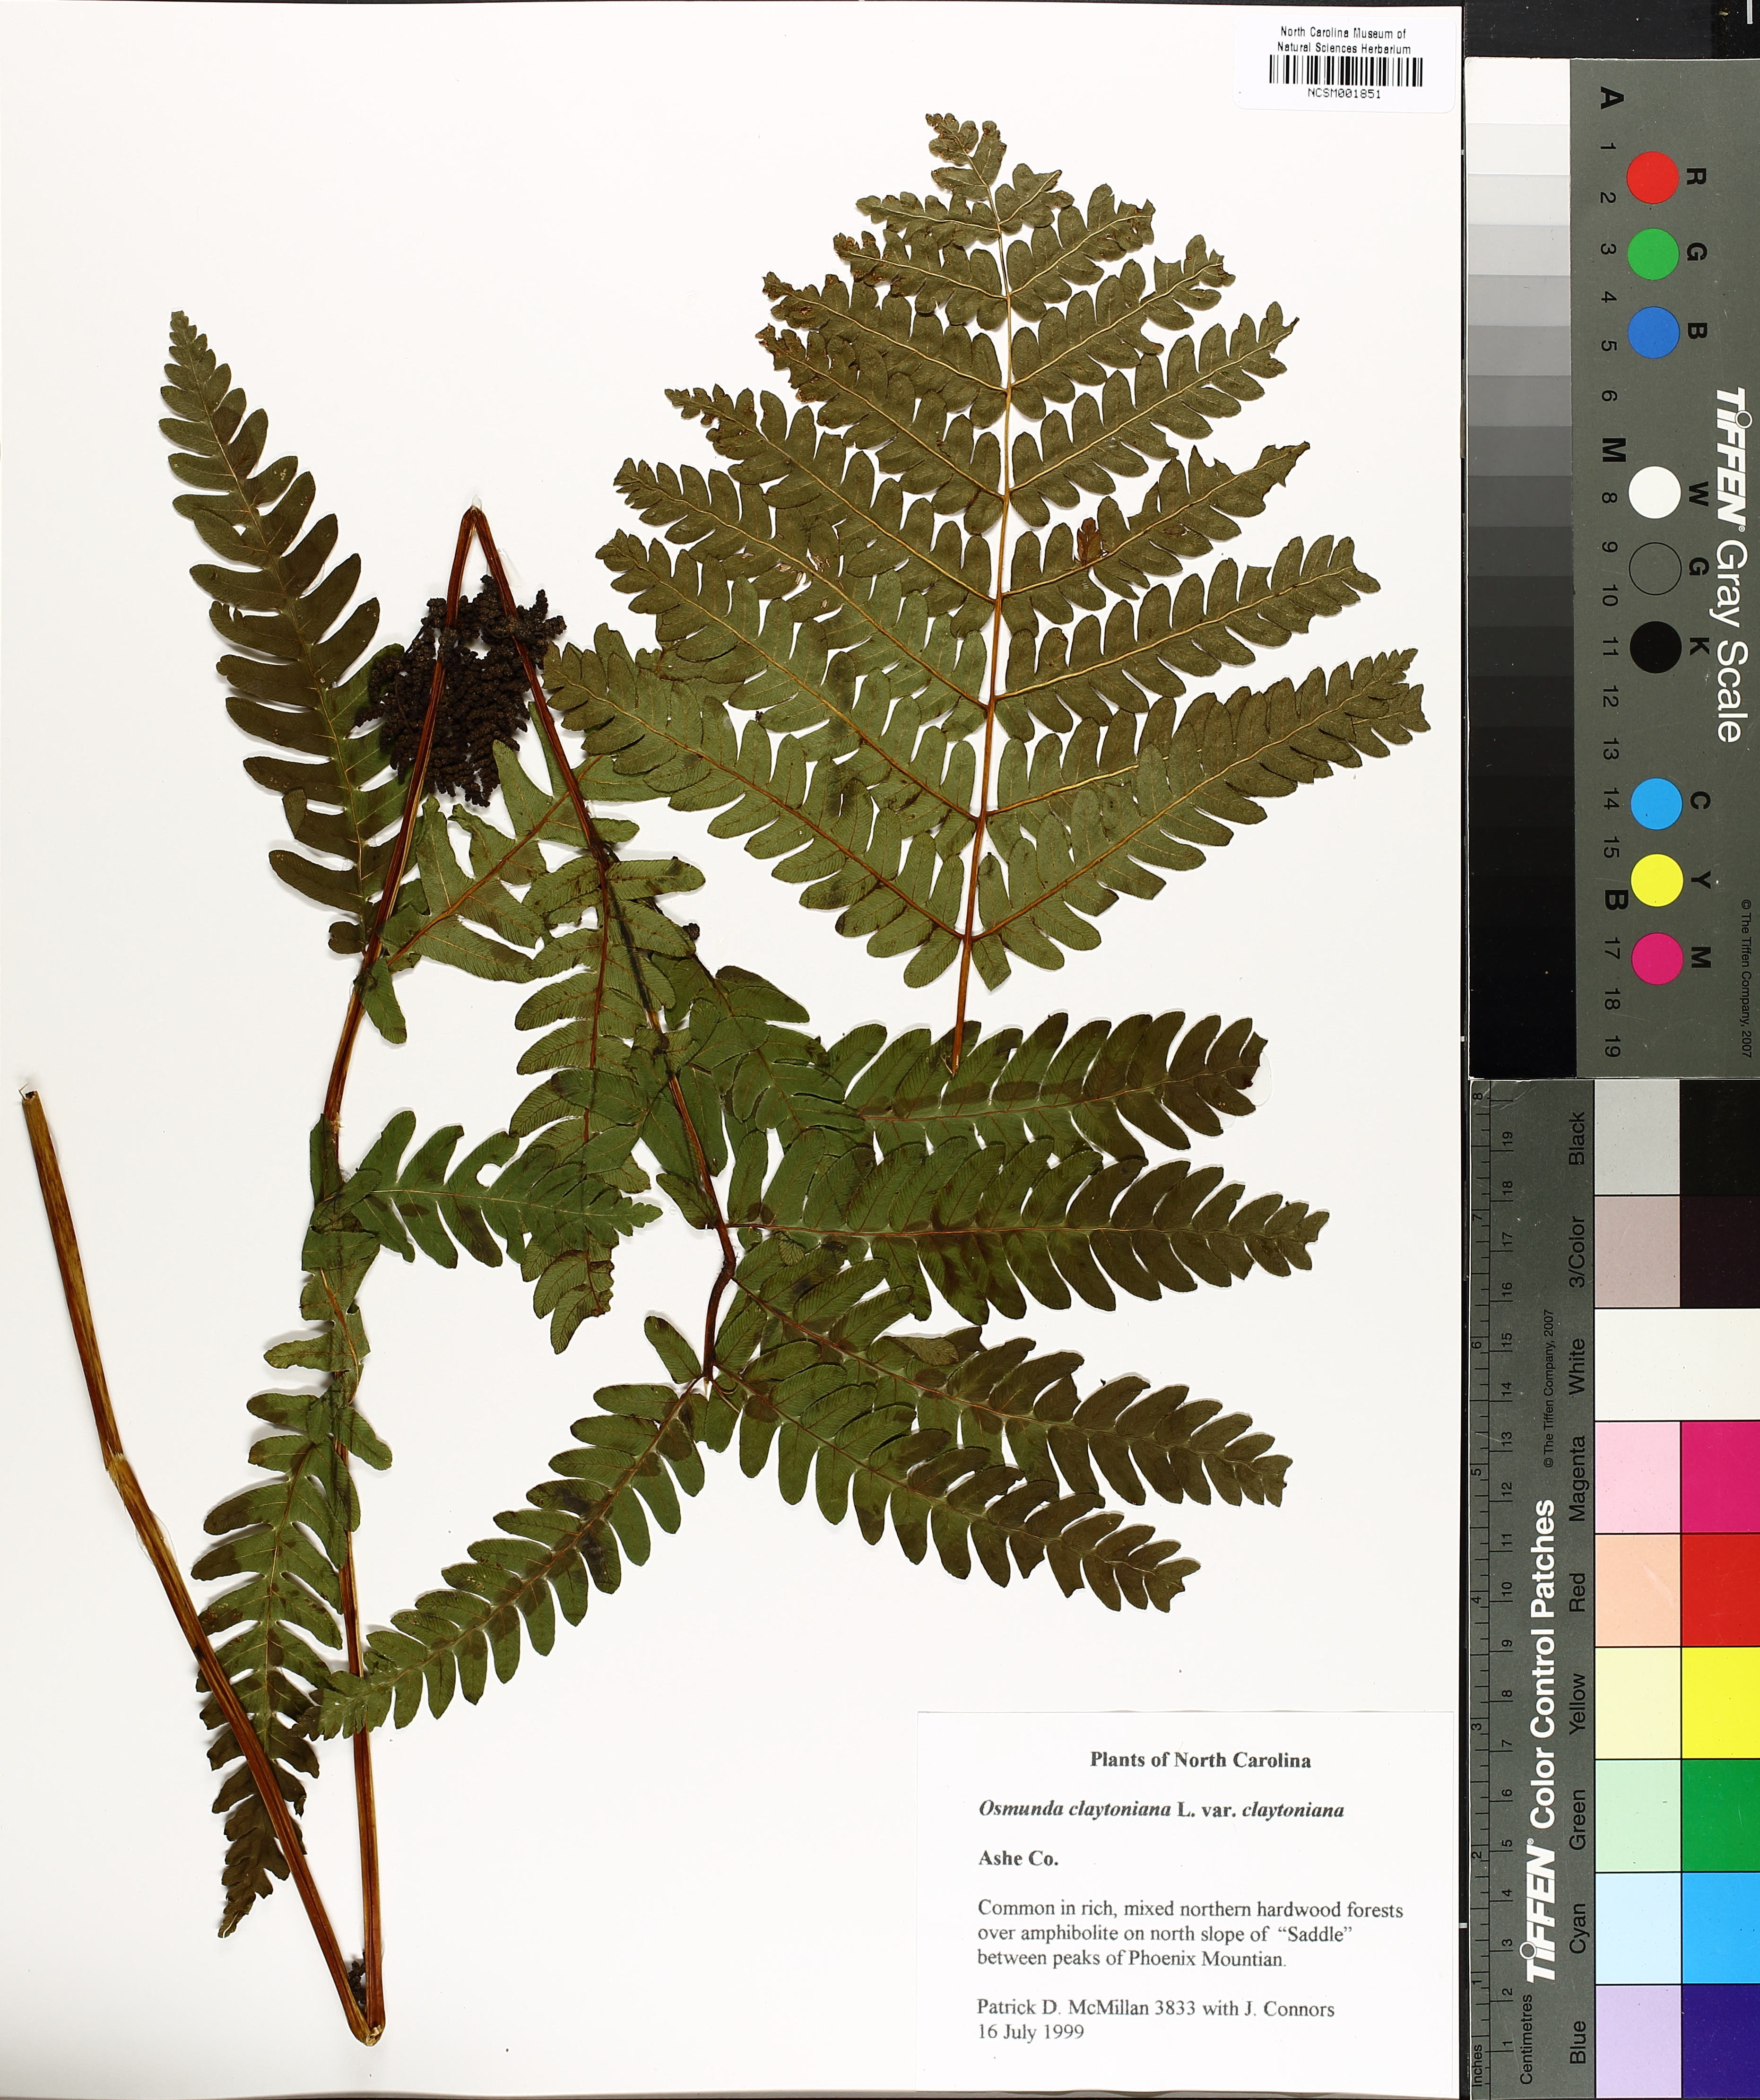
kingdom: Plantae
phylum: Tracheophyta
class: Polypodiopsida
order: Osmundales
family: Osmundaceae
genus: Claytosmunda
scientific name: Claytosmunda claytoniana
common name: Clayton's fern
